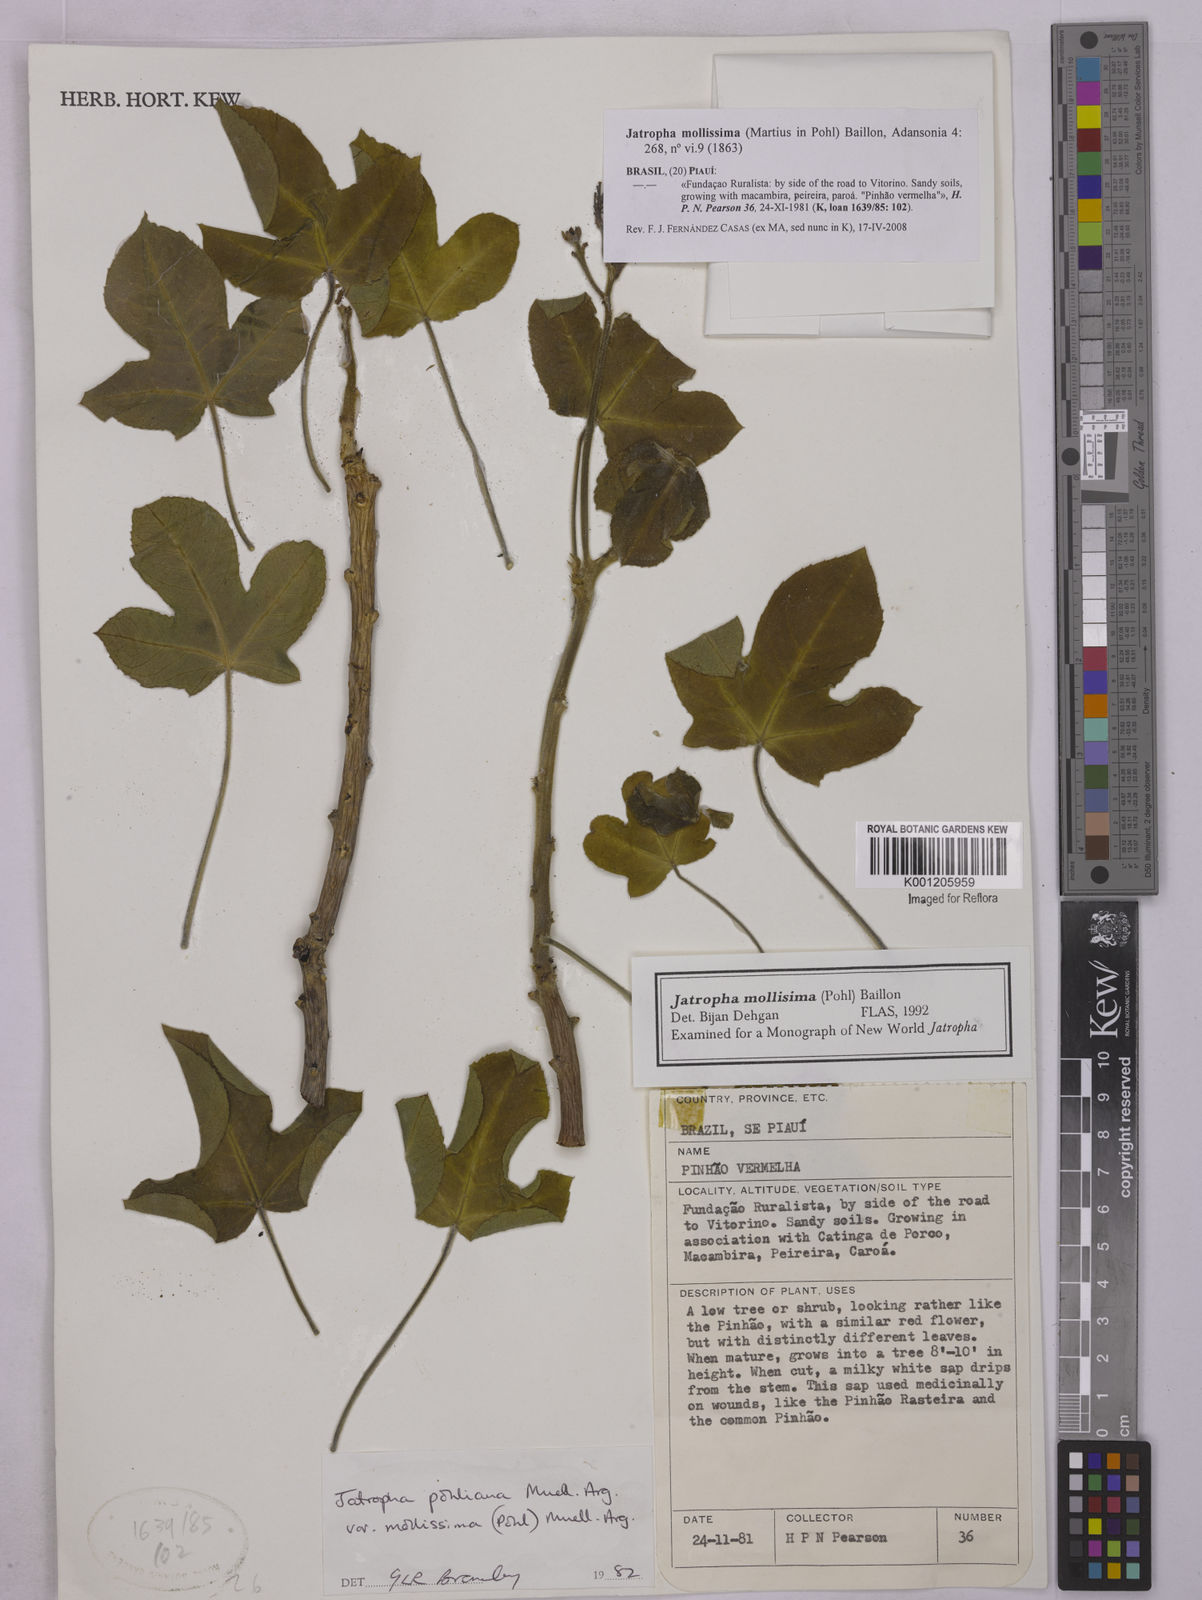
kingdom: Plantae
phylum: Tracheophyta
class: Magnoliopsida
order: Malpighiales
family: Euphorbiaceae
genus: Jatropha
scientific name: Jatropha mollissima
